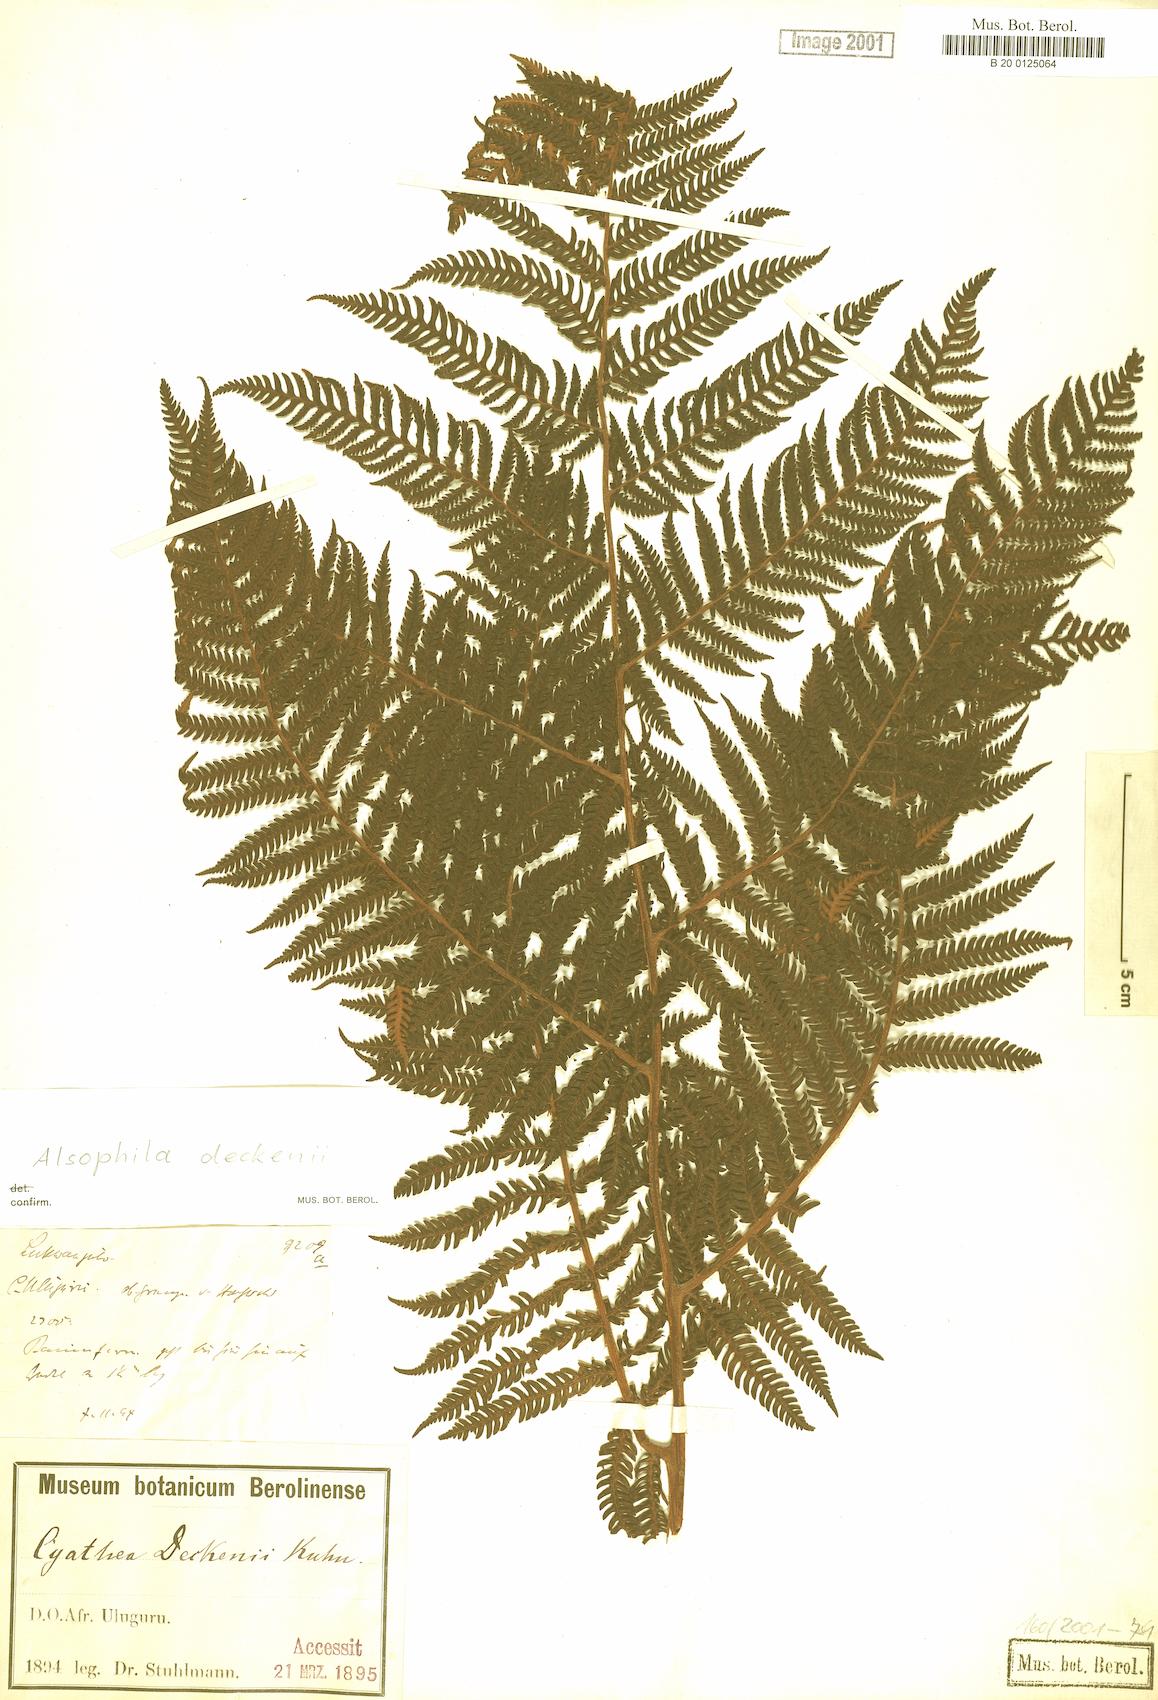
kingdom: Plantae
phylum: Tracheophyta
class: Polypodiopsida
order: Cyatheales
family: Cyatheaceae
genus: Alsophila
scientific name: Alsophila deckenii
